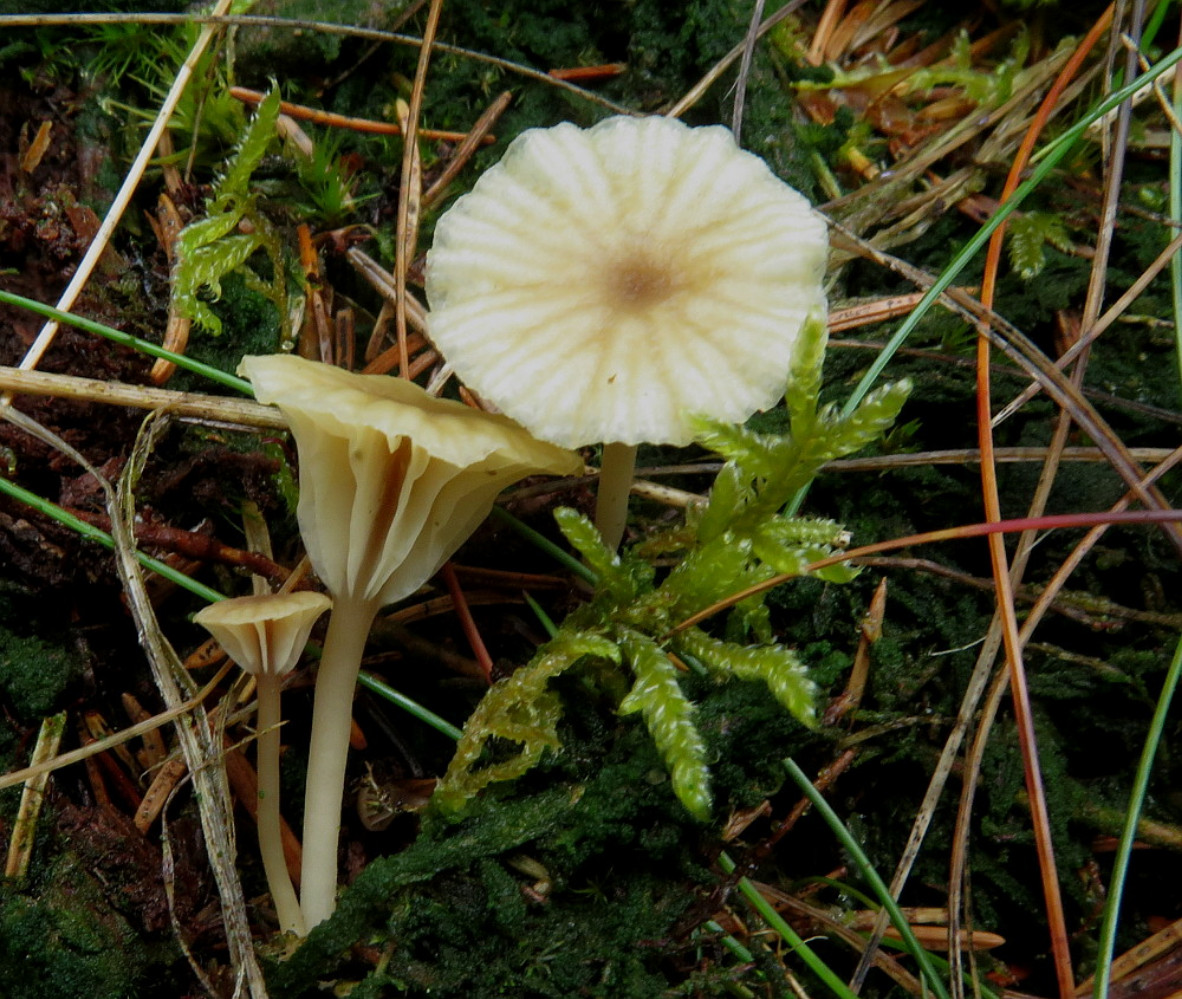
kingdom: Fungi
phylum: Basidiomycota
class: Agaricomycetes
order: Agaricales
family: Hygrophoraceae
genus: Lichenomphalia
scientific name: Lichenomphalia umbellifera
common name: tørve-lavhat
